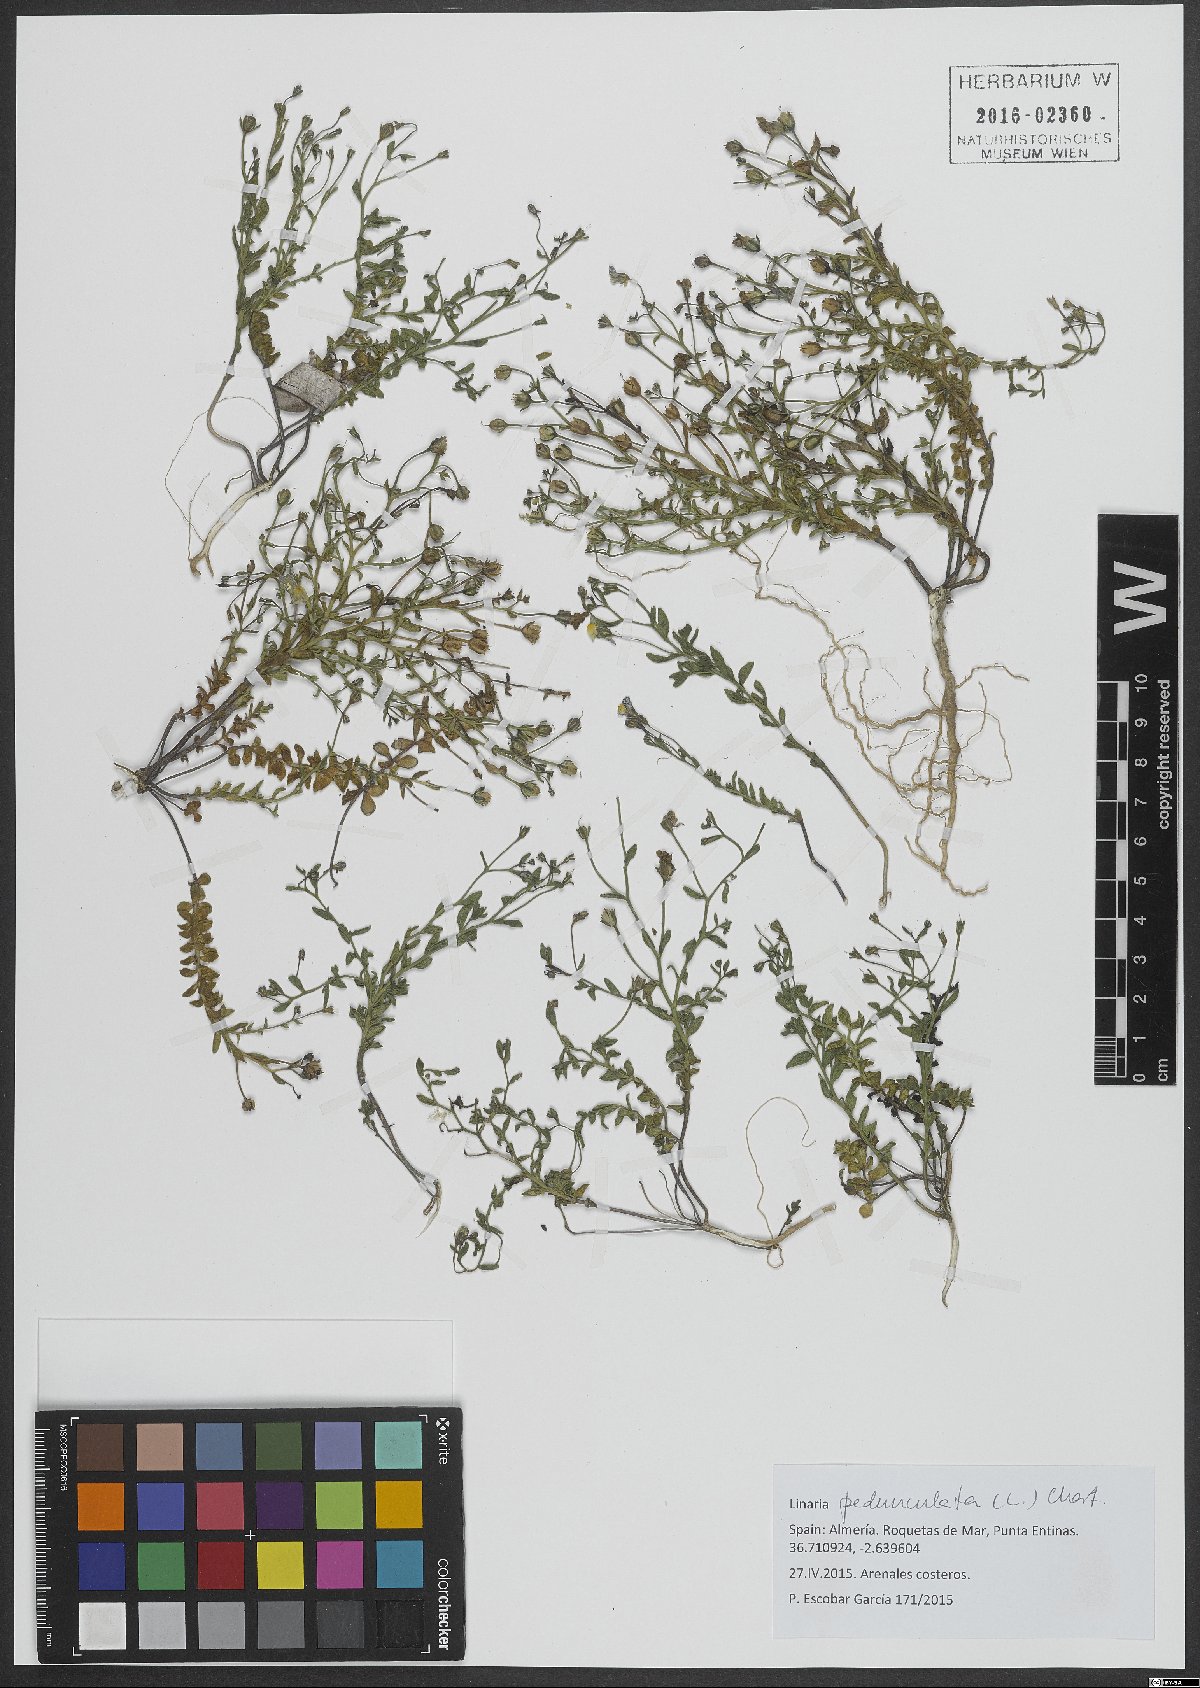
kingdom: Plantae
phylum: Tracheophyta
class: Magnoliopsida
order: Lamiales
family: Plantaginaceae
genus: Linaria
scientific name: Linaria pedunculata
